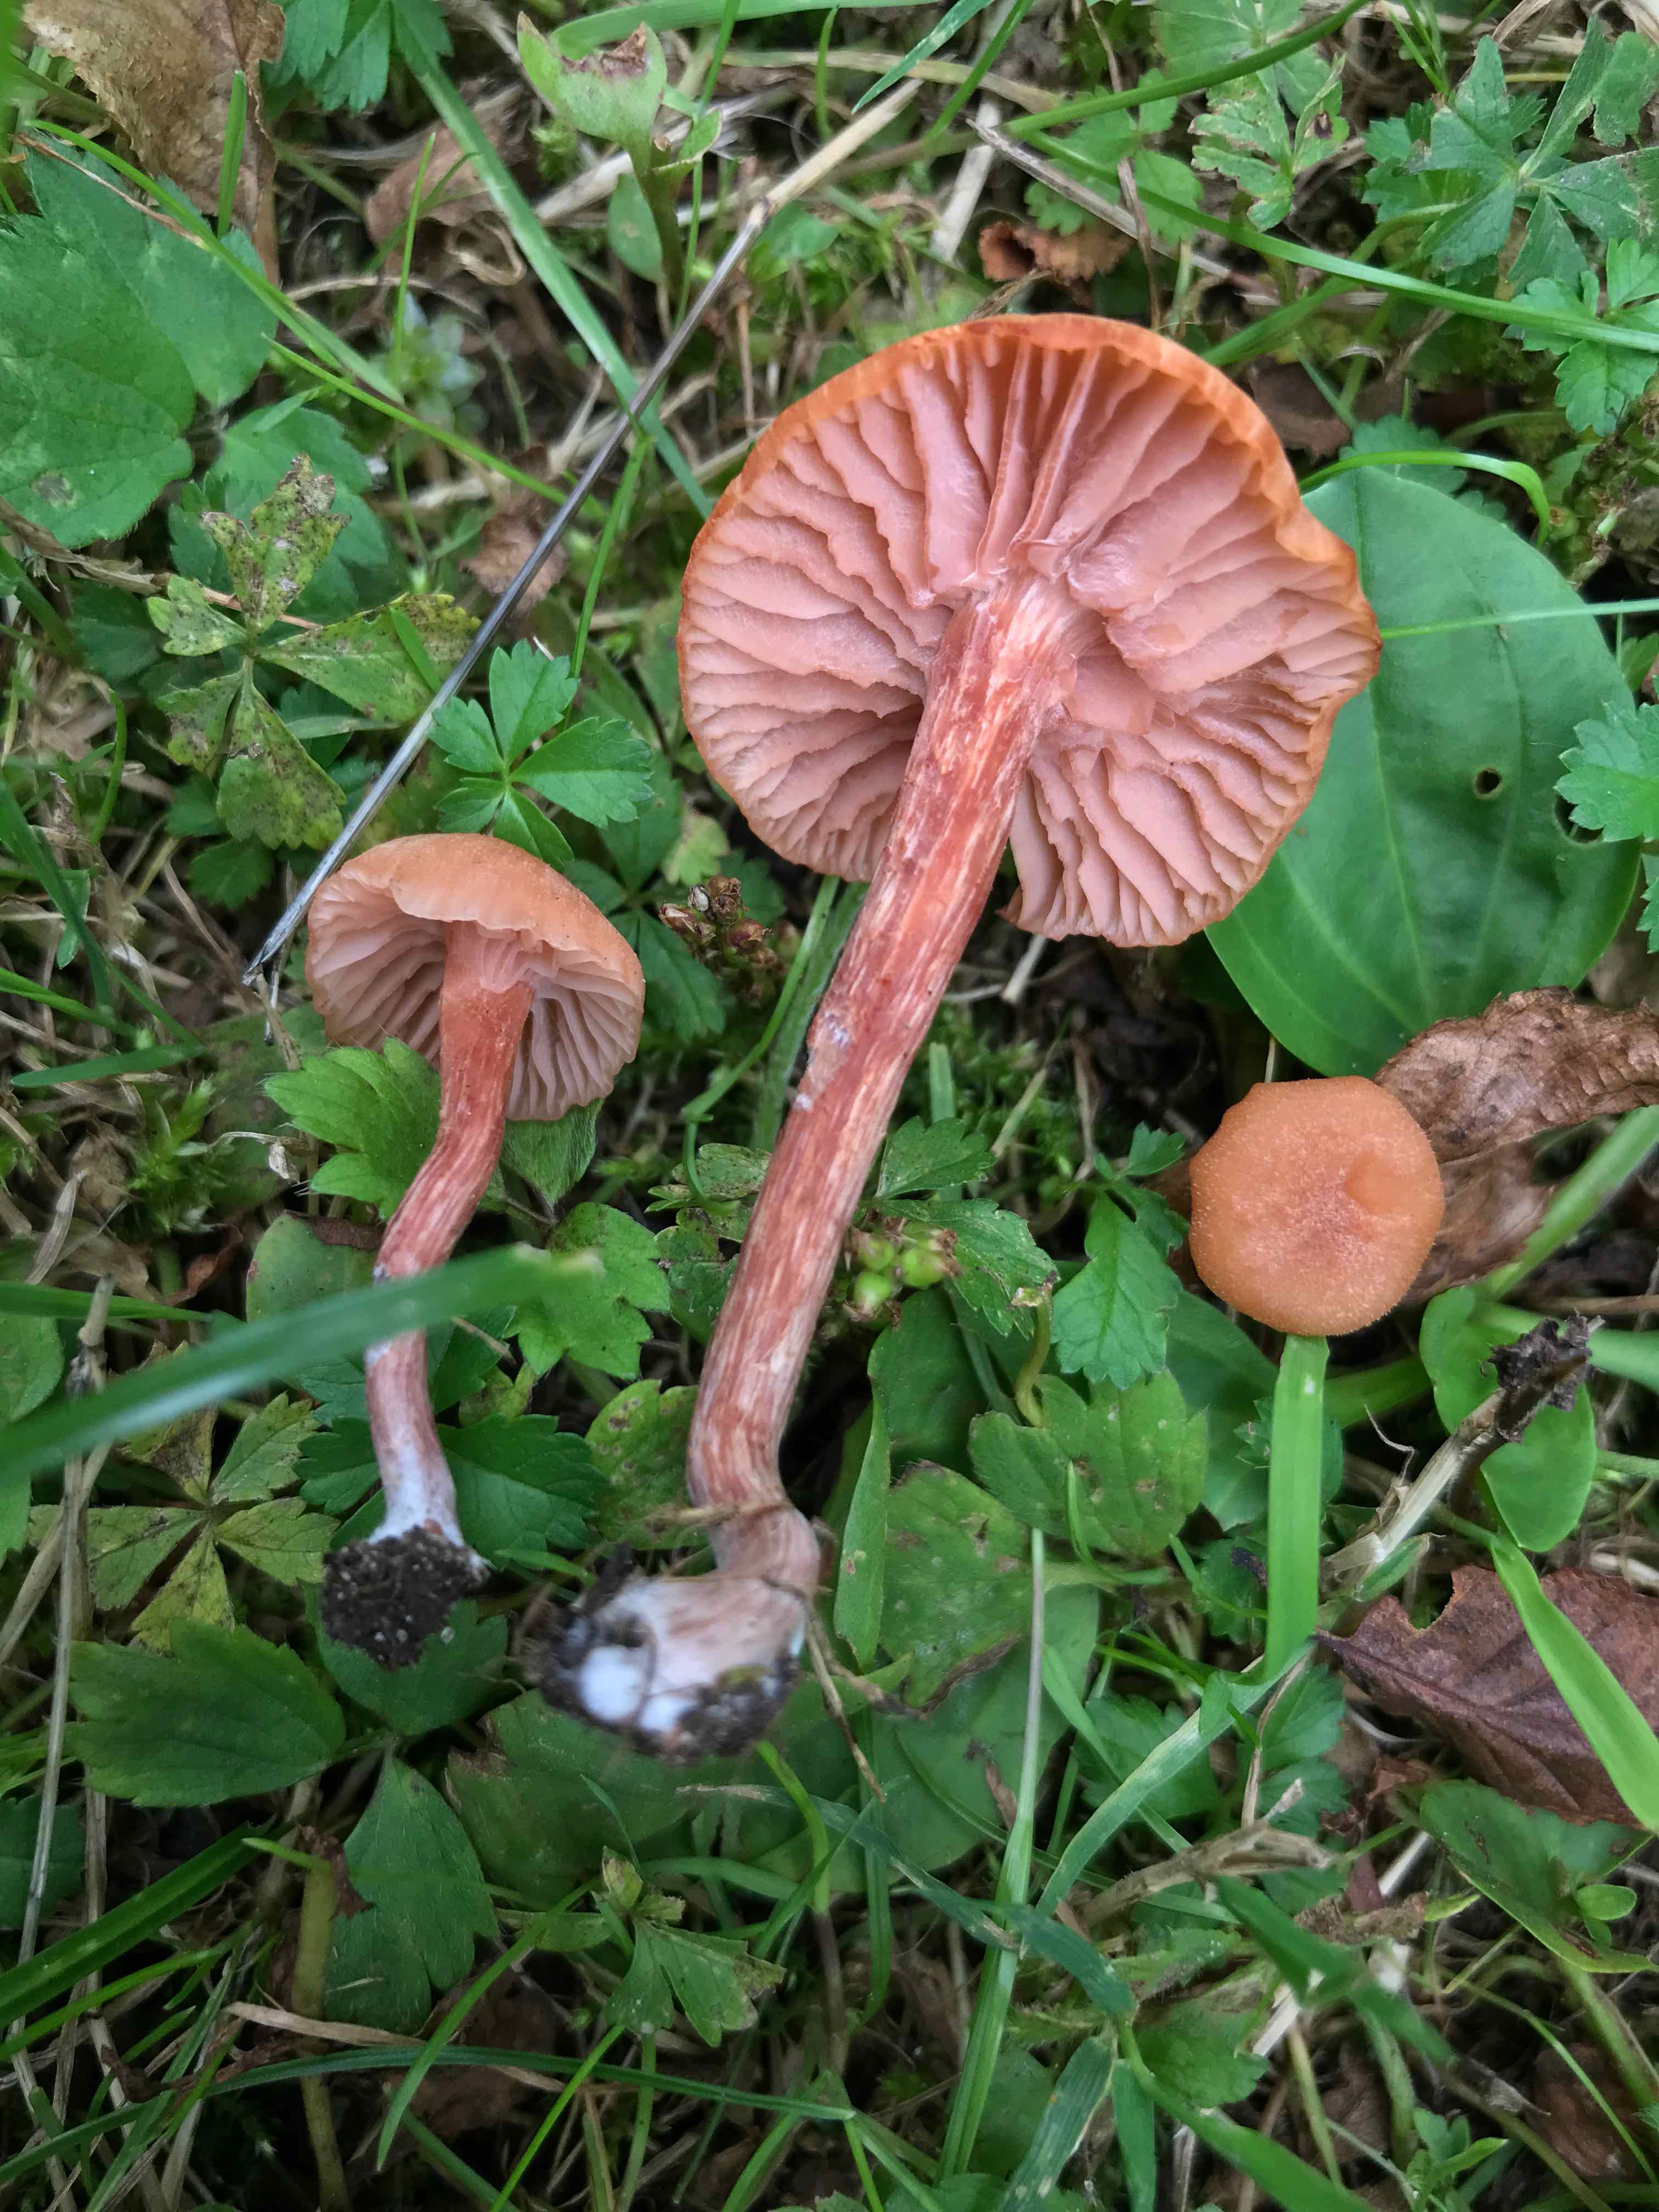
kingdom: Fungi
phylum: Basidiomycota
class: Agaricomycetes
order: Agaricales
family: Hydnangiaceae
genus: Laccaria
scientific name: Laccaria laccata
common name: rød ametysthat
